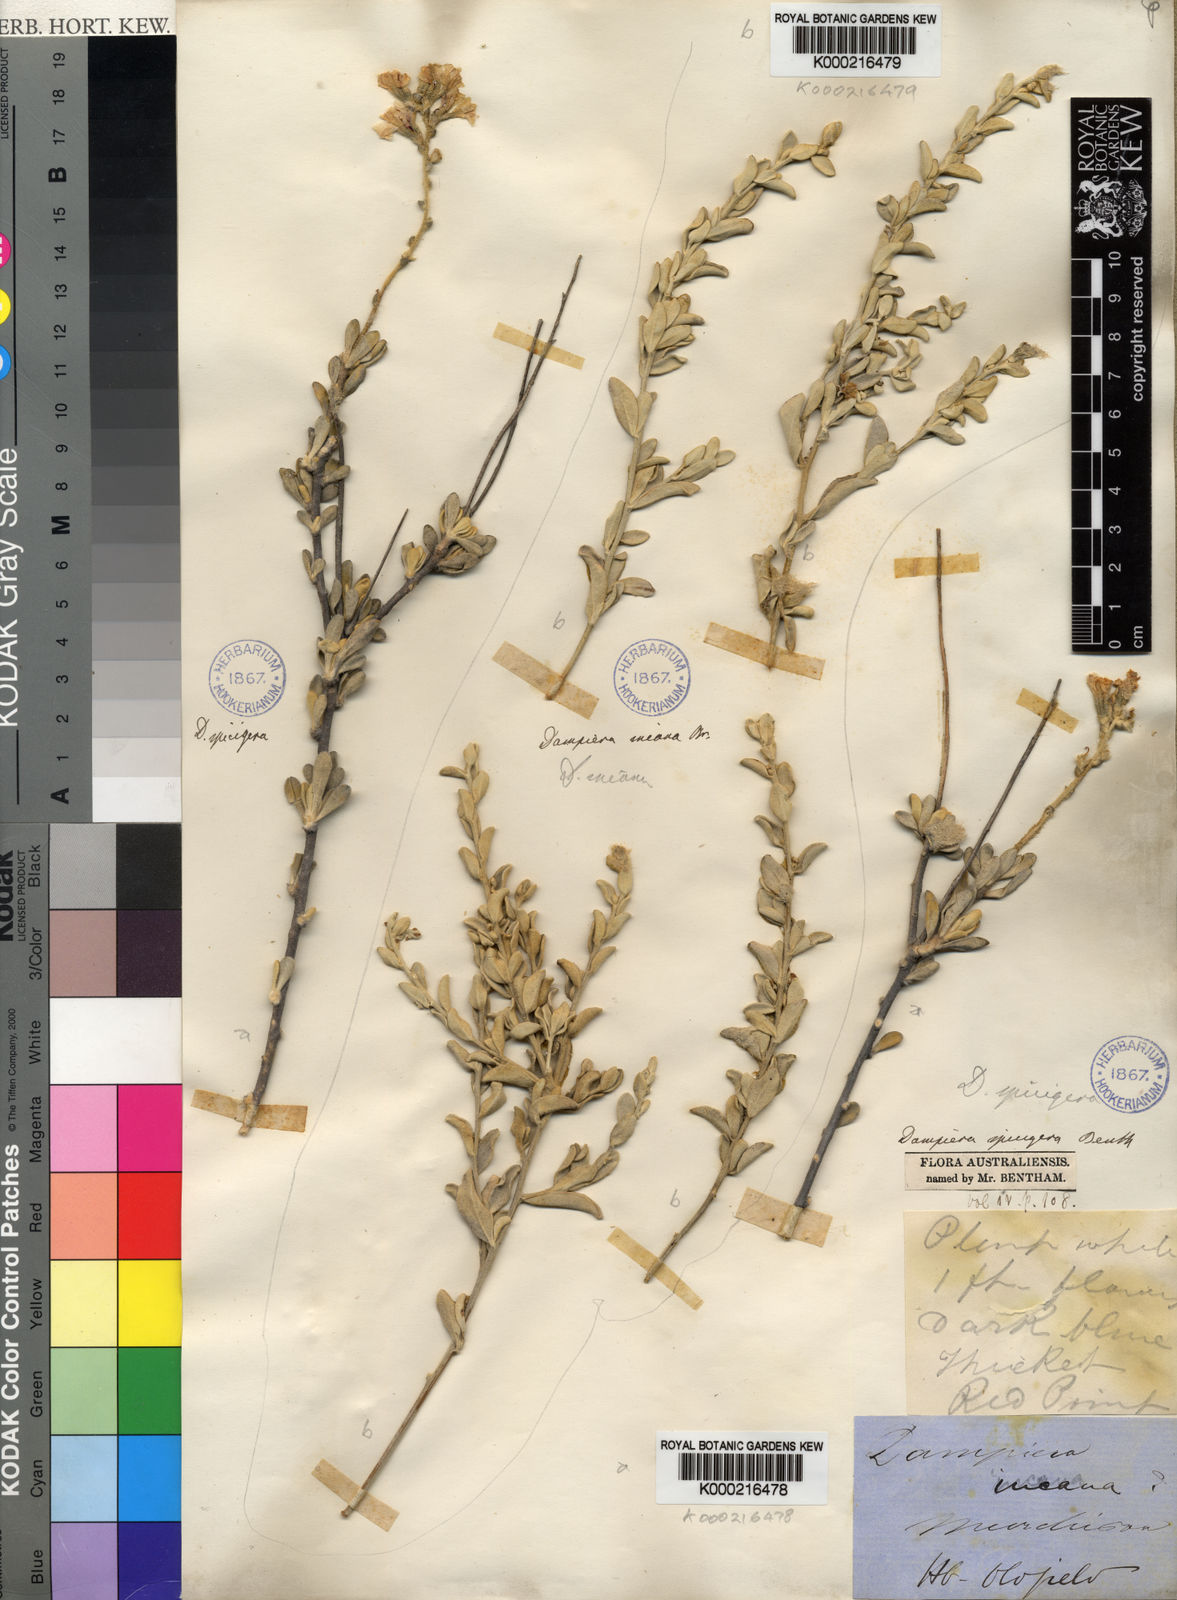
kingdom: Plantae
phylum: Tracheophyta
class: Magnoliopsida
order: Asterales
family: Goodeniaceae
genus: Dampiera
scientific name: Dampiera incana
